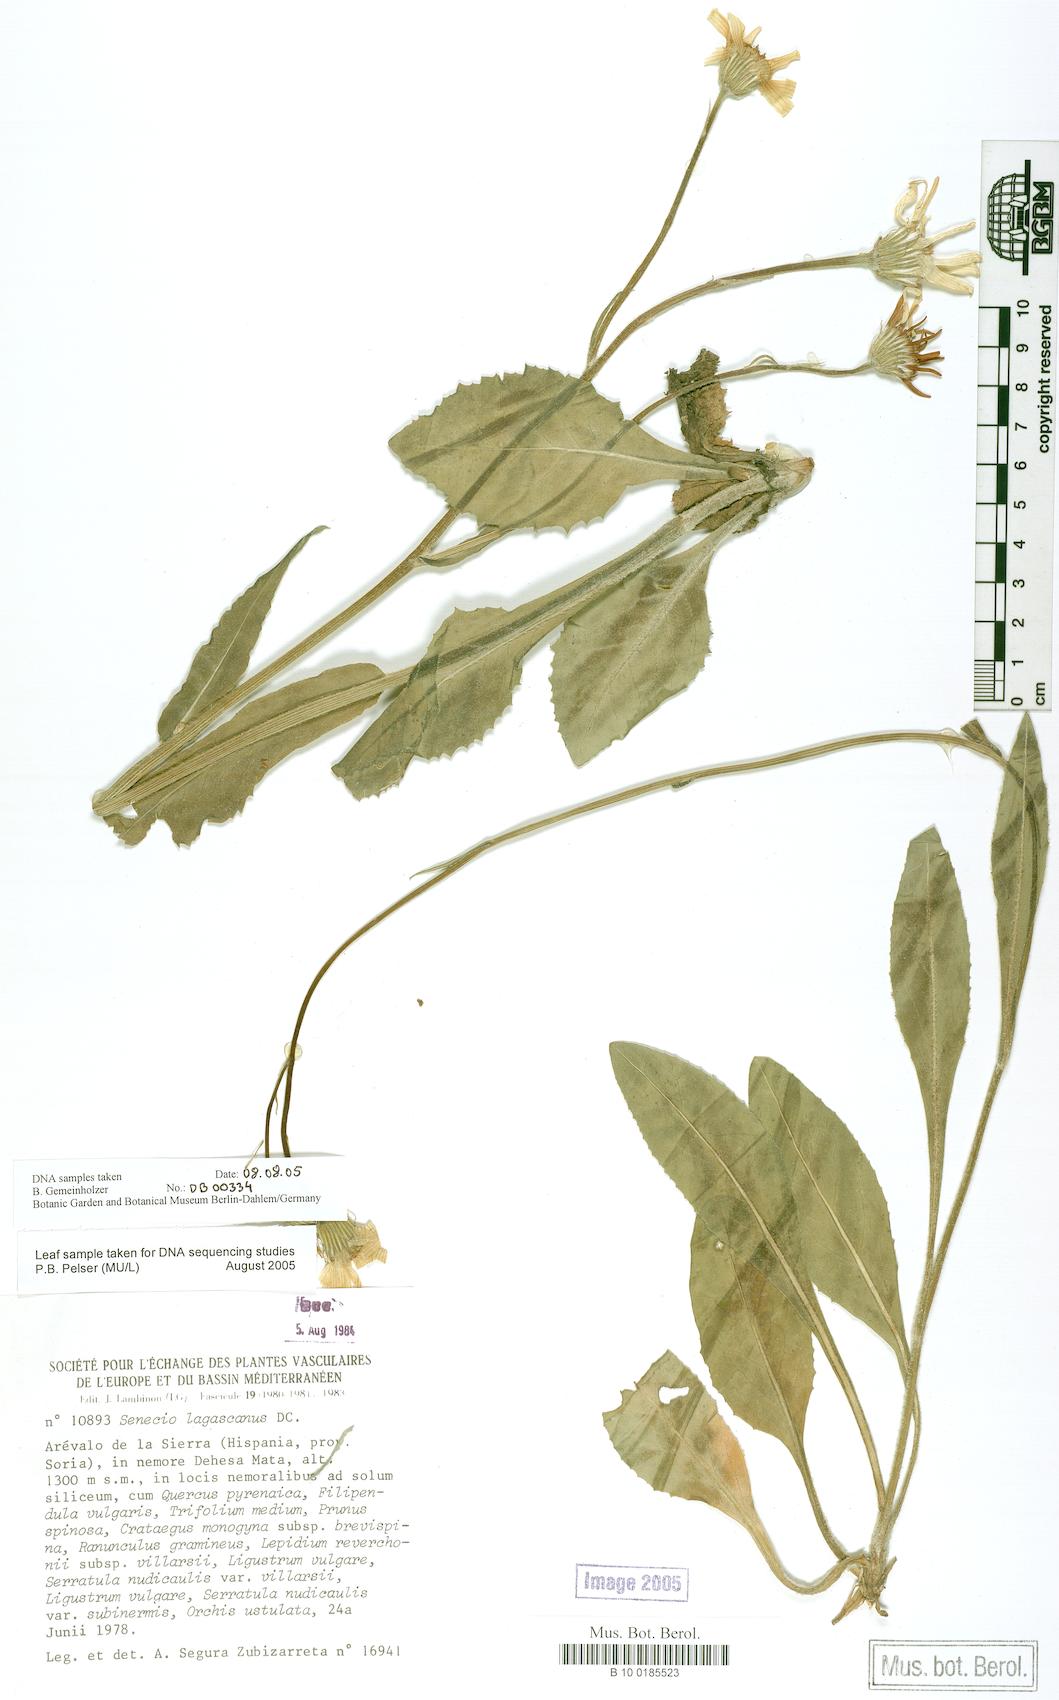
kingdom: Plantae
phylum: Tracheophyta
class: Magnoliopsida
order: Asterales
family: Asteraceae
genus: Senecio
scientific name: Senecio lagascanus
